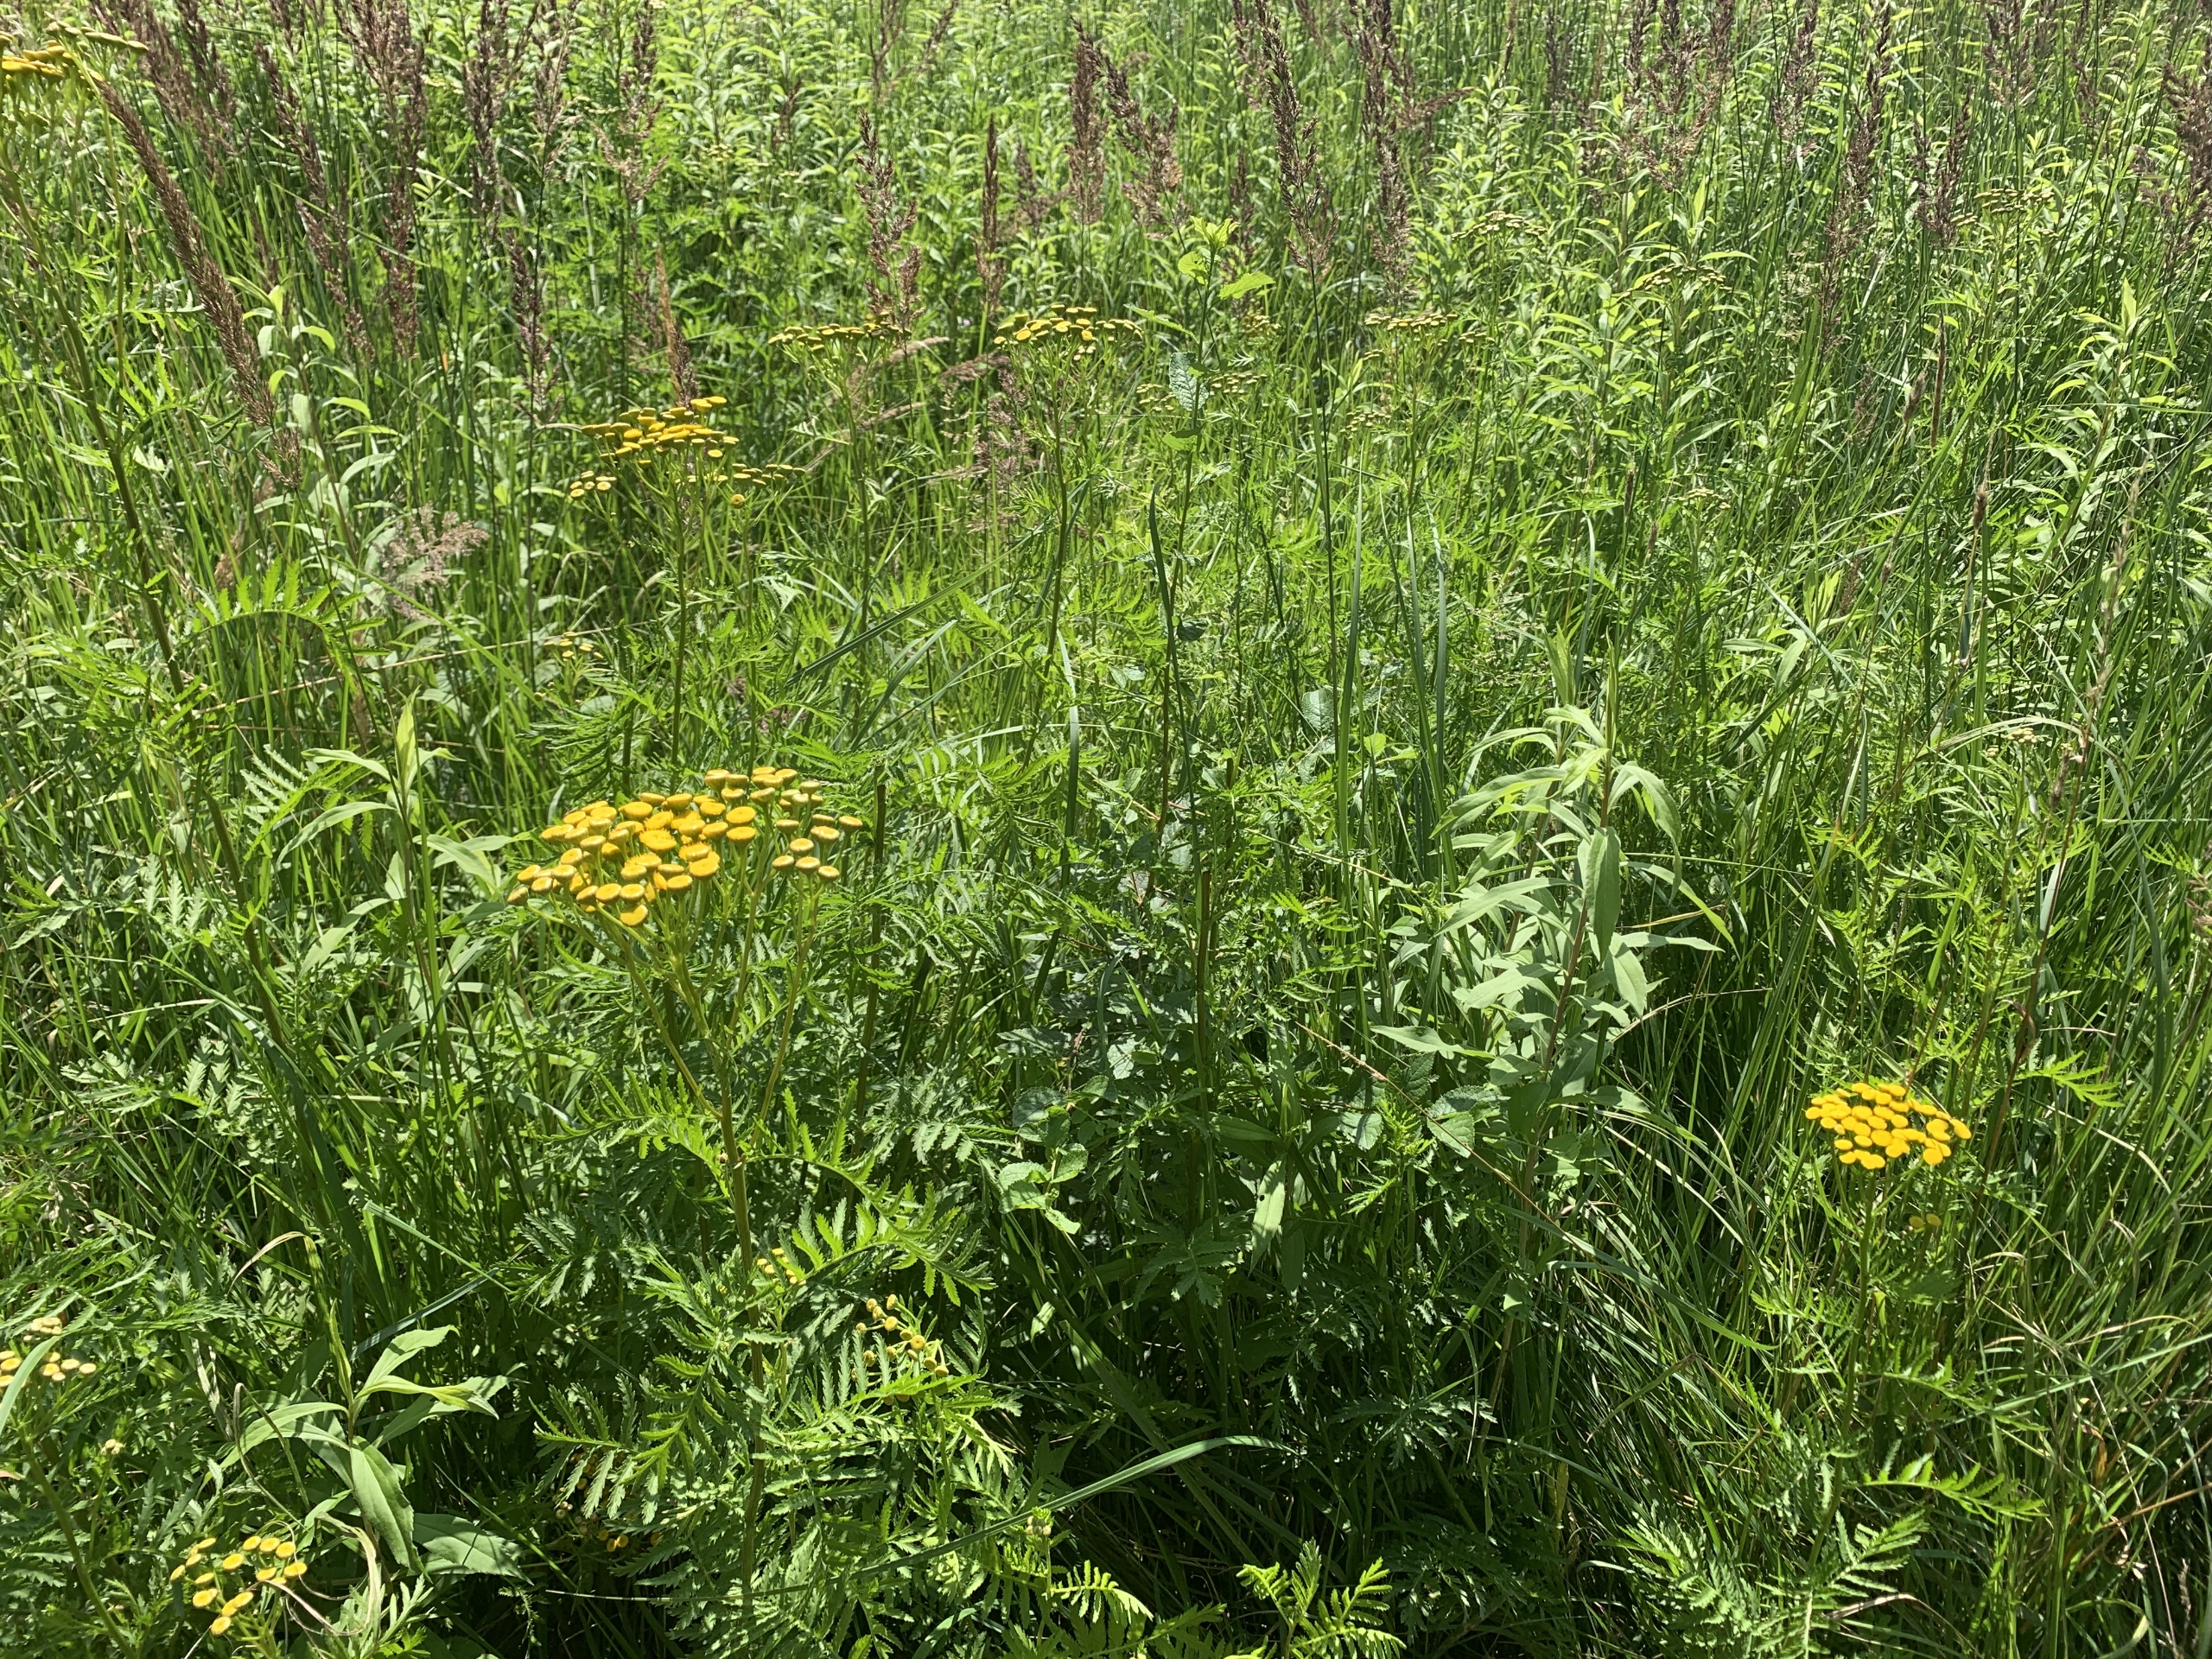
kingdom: Plantae
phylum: Tracheophyta
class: Magnoliopsida
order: Asterales
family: Asteraceae
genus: Tanacetum
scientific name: Tanacetum vulgare
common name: Rejnfan
